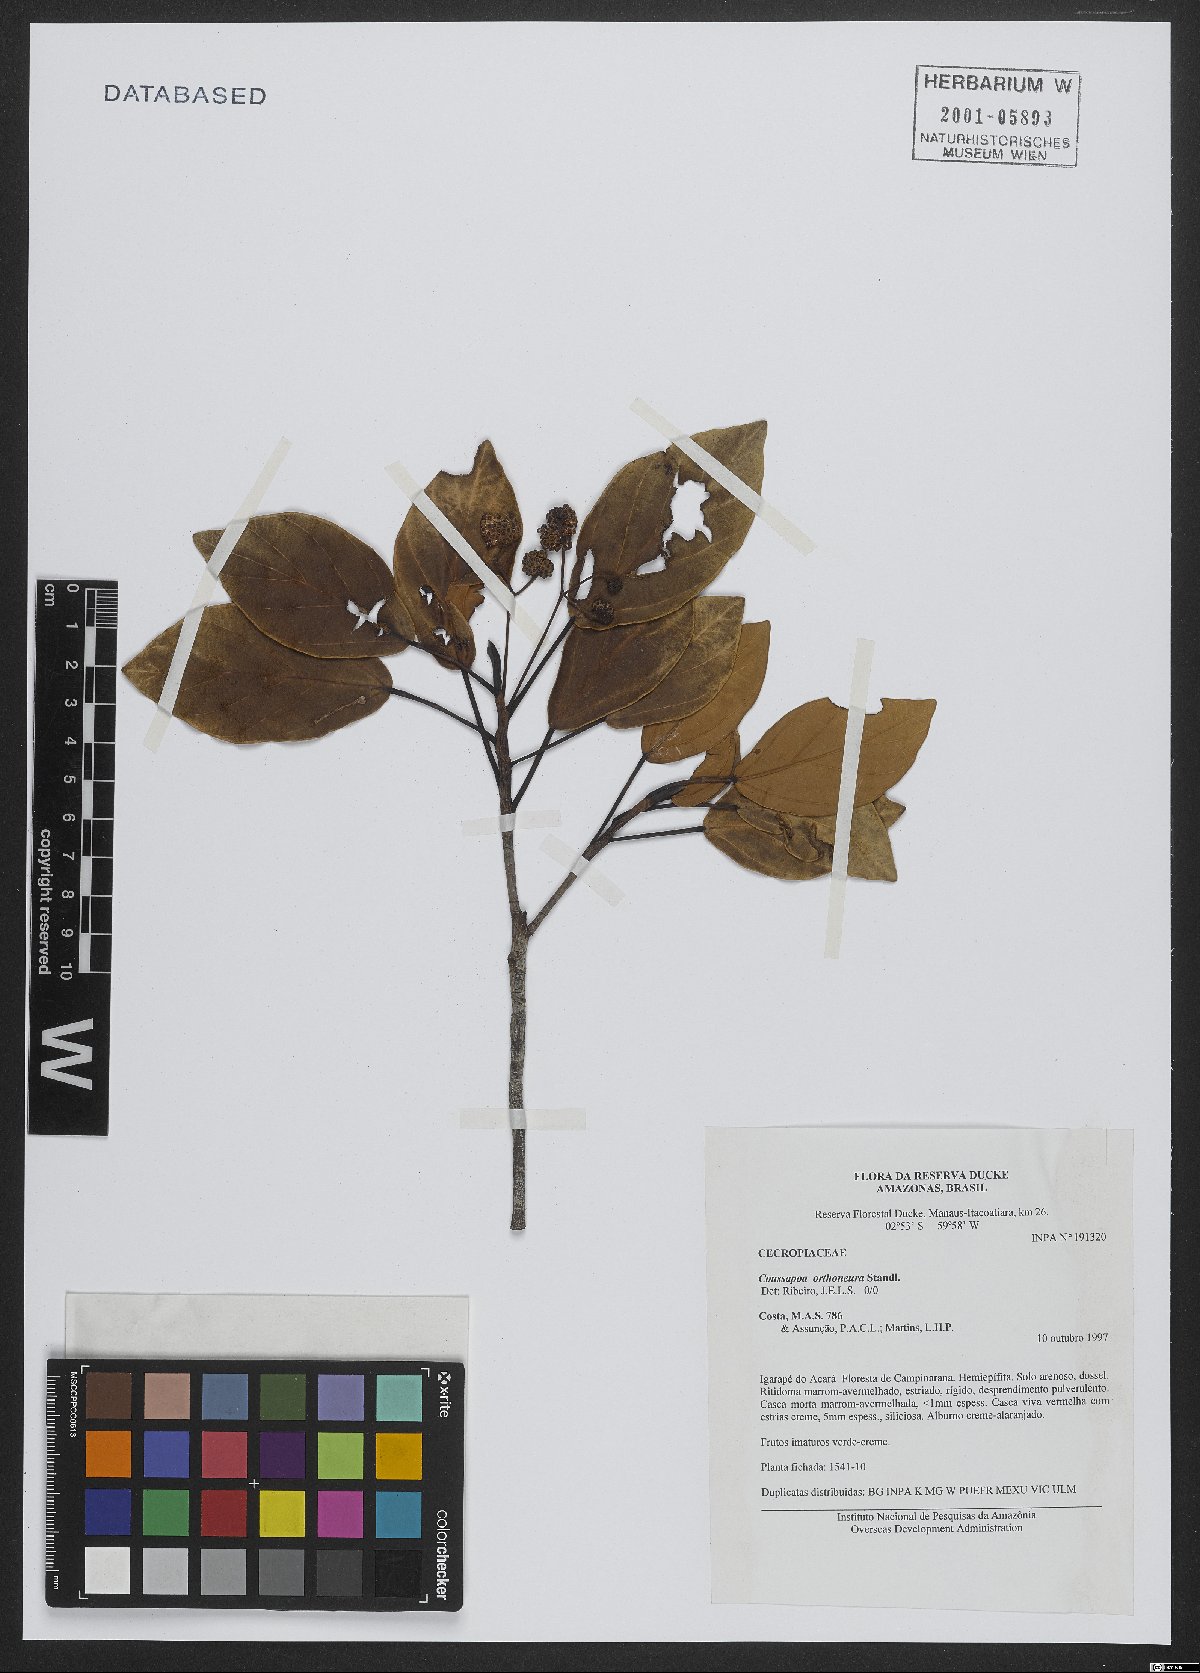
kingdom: Plantae
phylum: Tracheophyta
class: Magnoliopsida
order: Rosales
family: Urticaceae
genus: Coussapoa
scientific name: Coussapoa orthoneura
